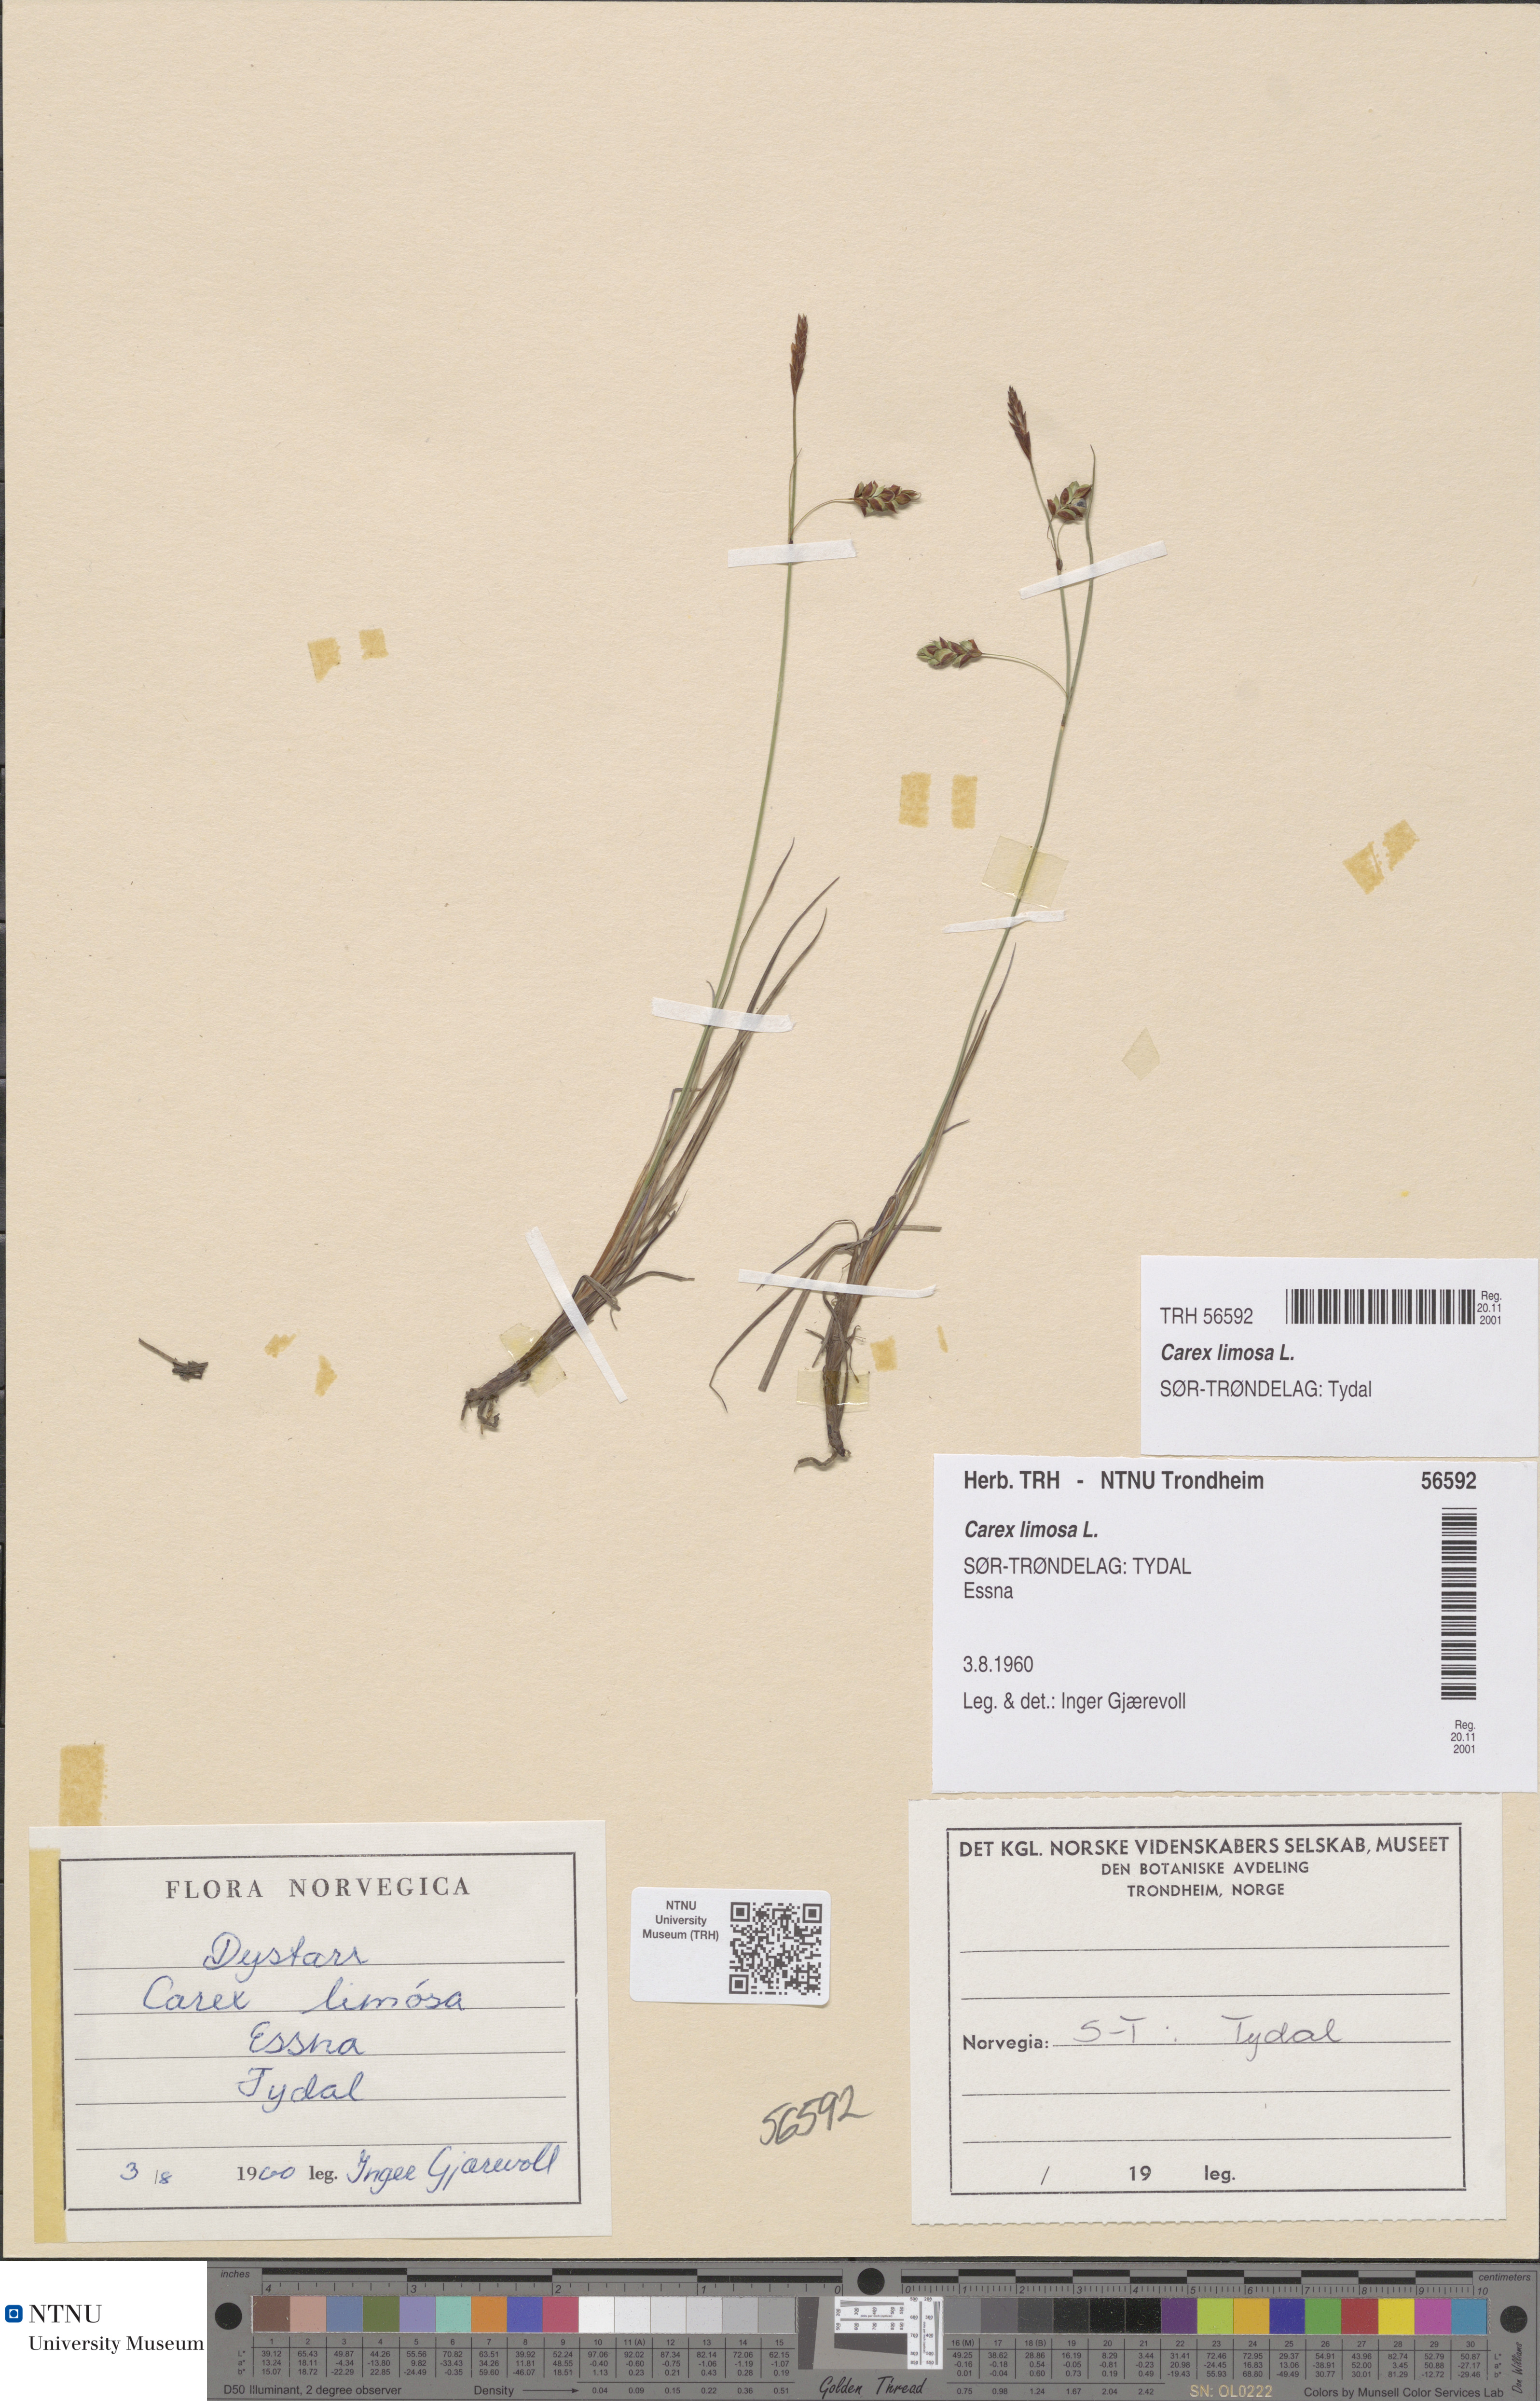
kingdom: Plantae
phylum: Tracheophyta
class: Liliopsida
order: Poales
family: Cyperaceae
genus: Carex
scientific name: Carex limosa
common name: Bog sedge
